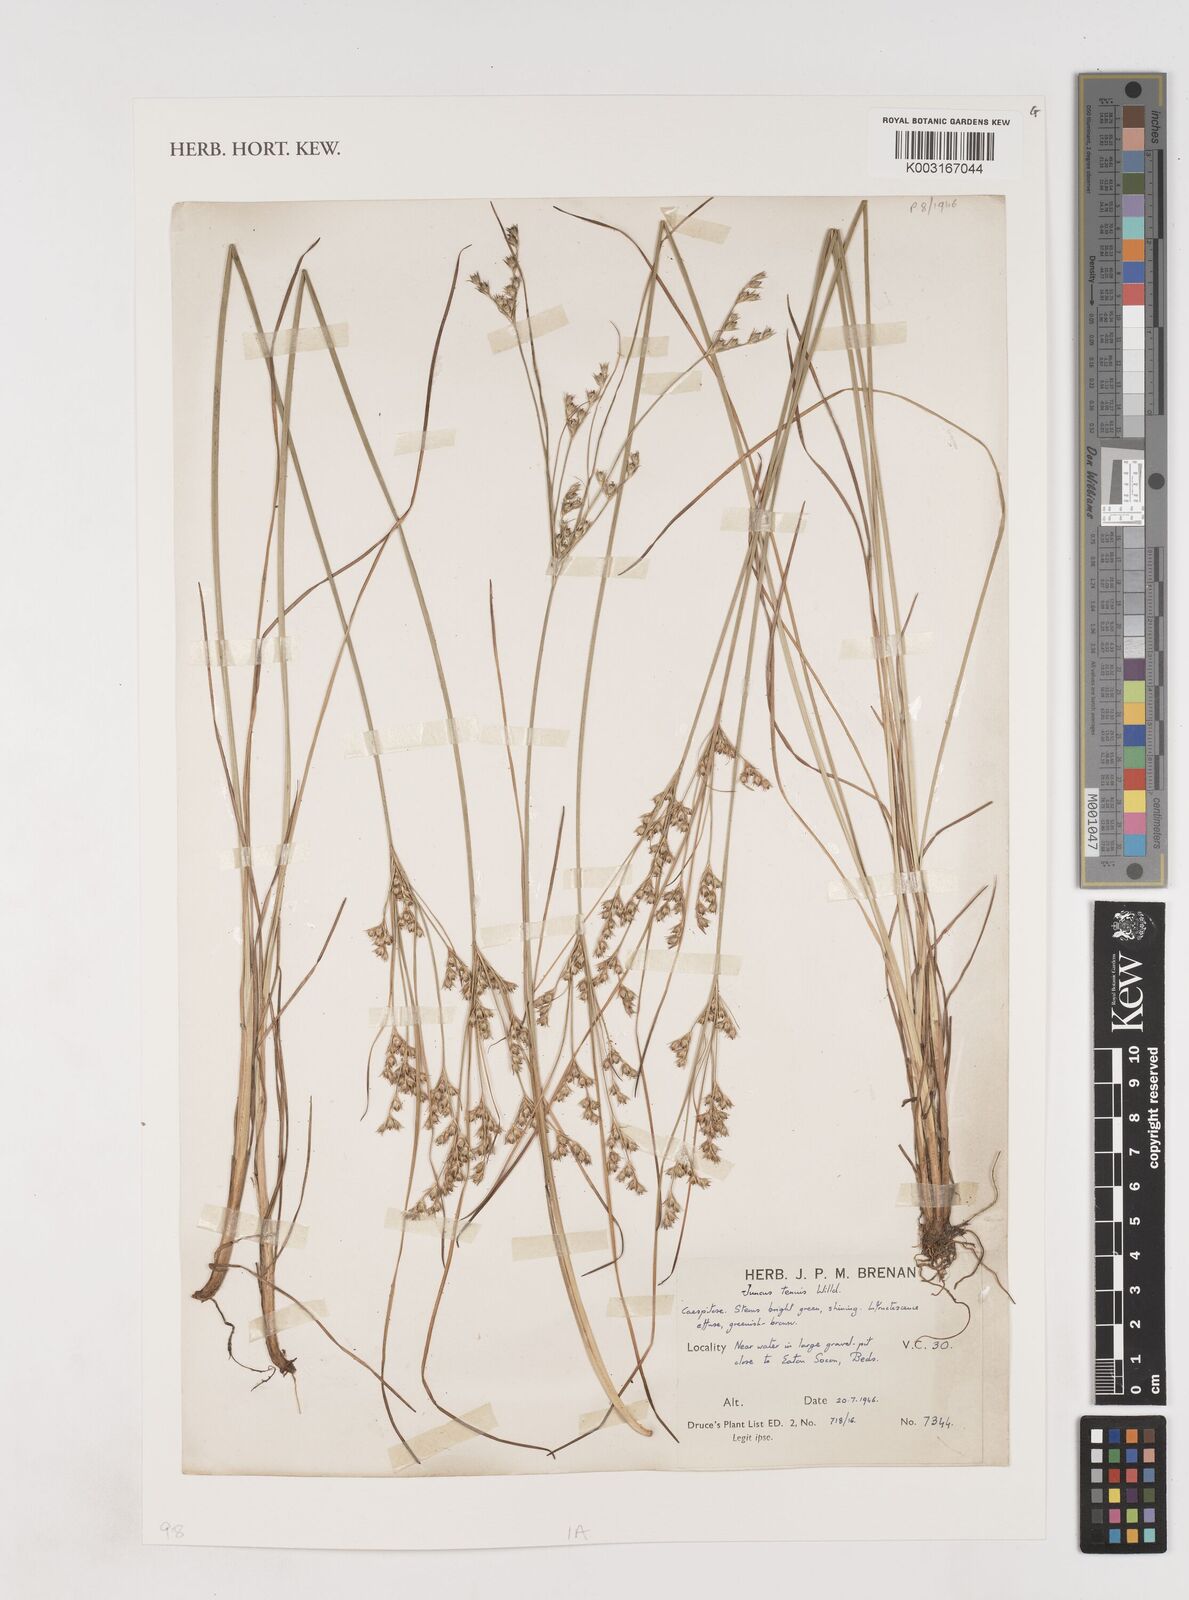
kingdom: Plantae
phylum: Tracheophyta
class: Liliopsida
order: Poales
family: Juncaceae
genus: Juncus
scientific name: Juncus tenuis
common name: Slender rush
